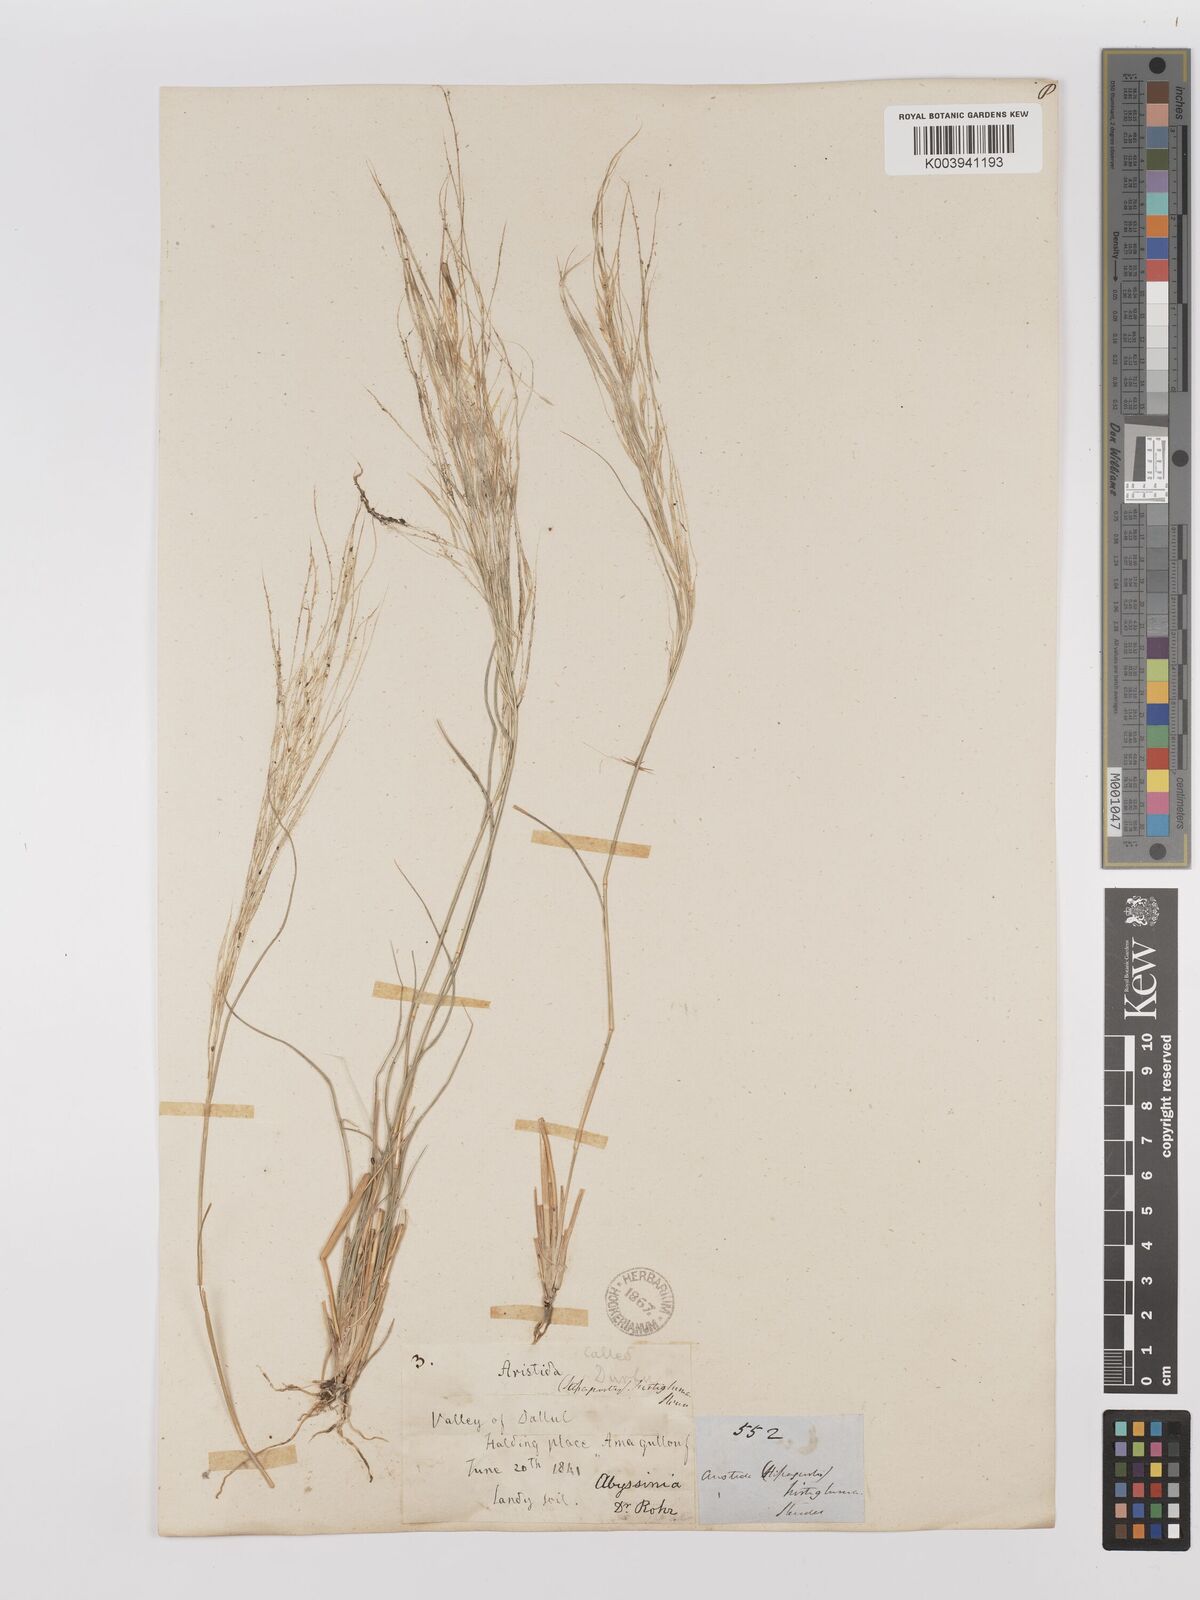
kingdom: Plantae
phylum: Tracheophyta
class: Liliopsida
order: Poales
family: Poaceae
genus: Stipagrostis
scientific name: Stipagrostis hirtigluma
